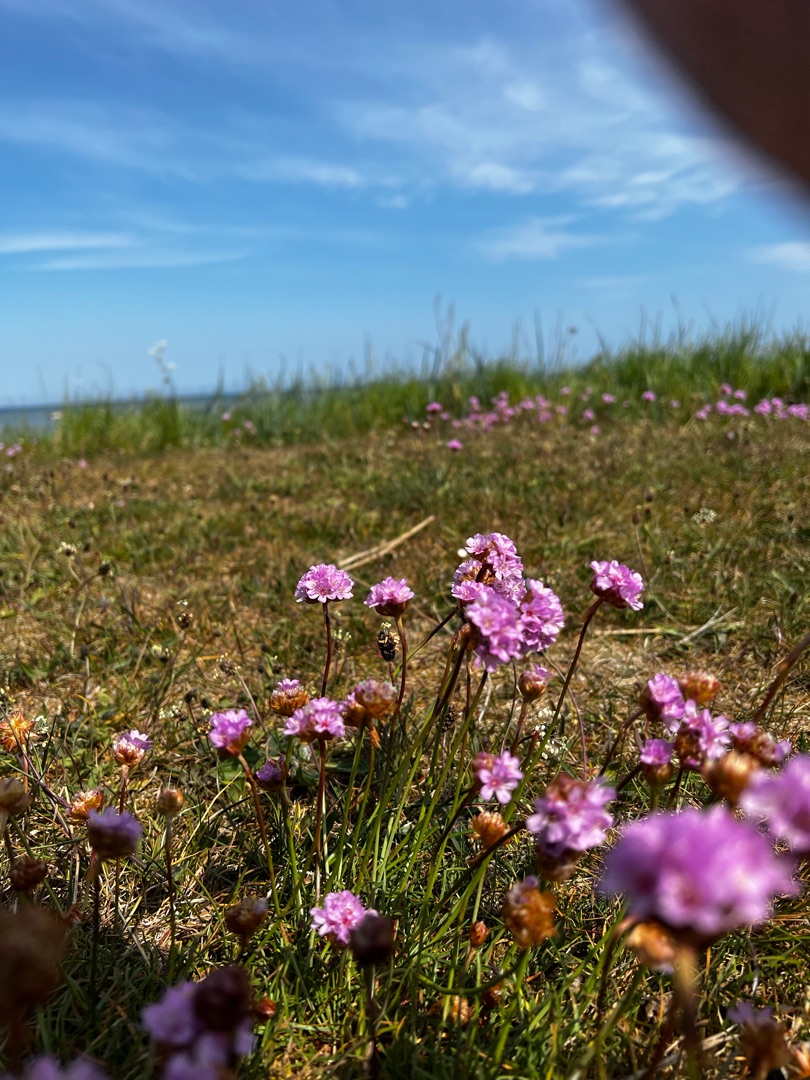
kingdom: Plantae
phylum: Tracheophyta
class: Magnoliopsida
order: Caryophyllales
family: Plumbaginaceae
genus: Armeria
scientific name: Armeria maritima
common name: Engelskgræs
